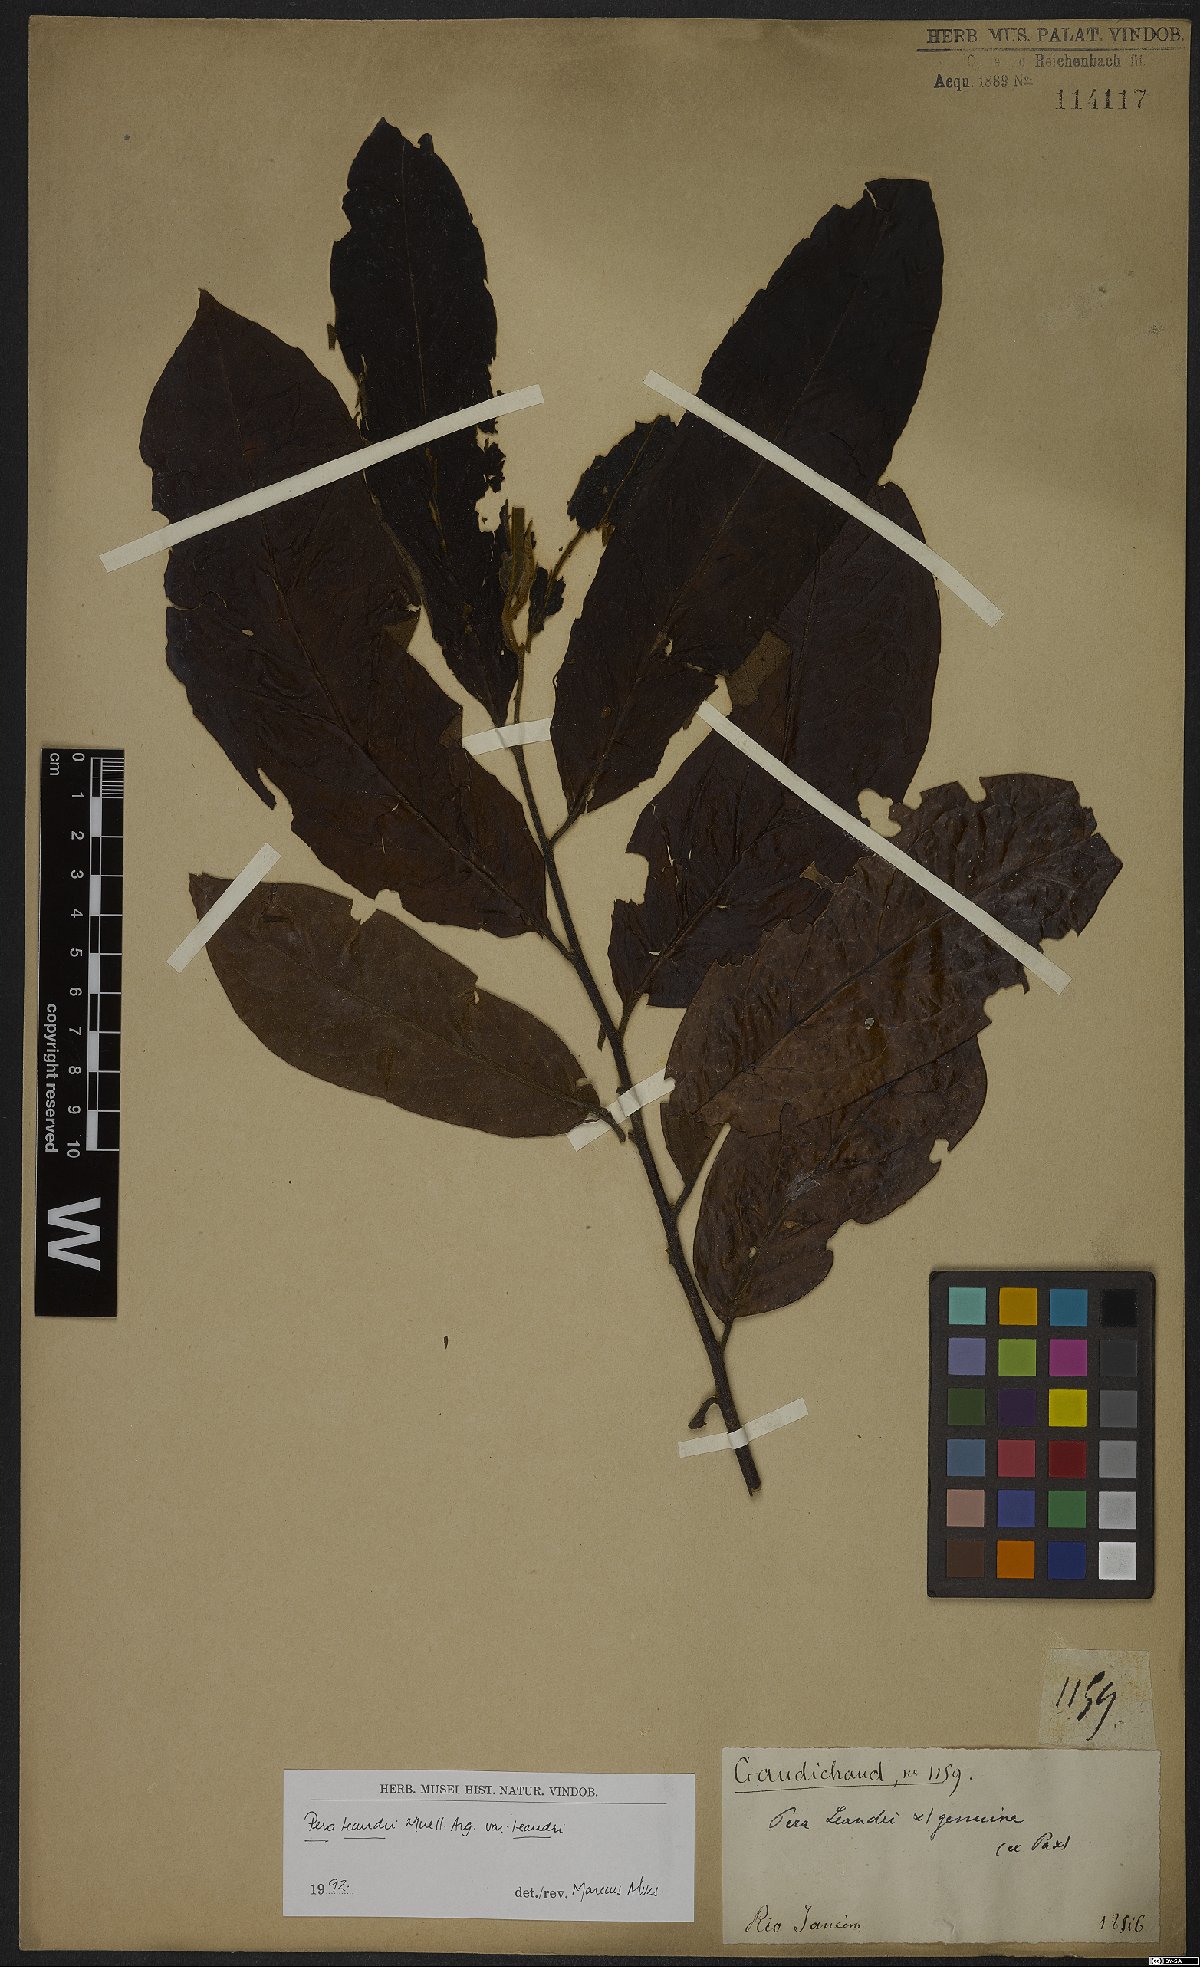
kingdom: Plantae
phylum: Tracheophyta
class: Magnoliopsida
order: Malpighiales
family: Peraceae
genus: Pera
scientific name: Pera heteranthera
